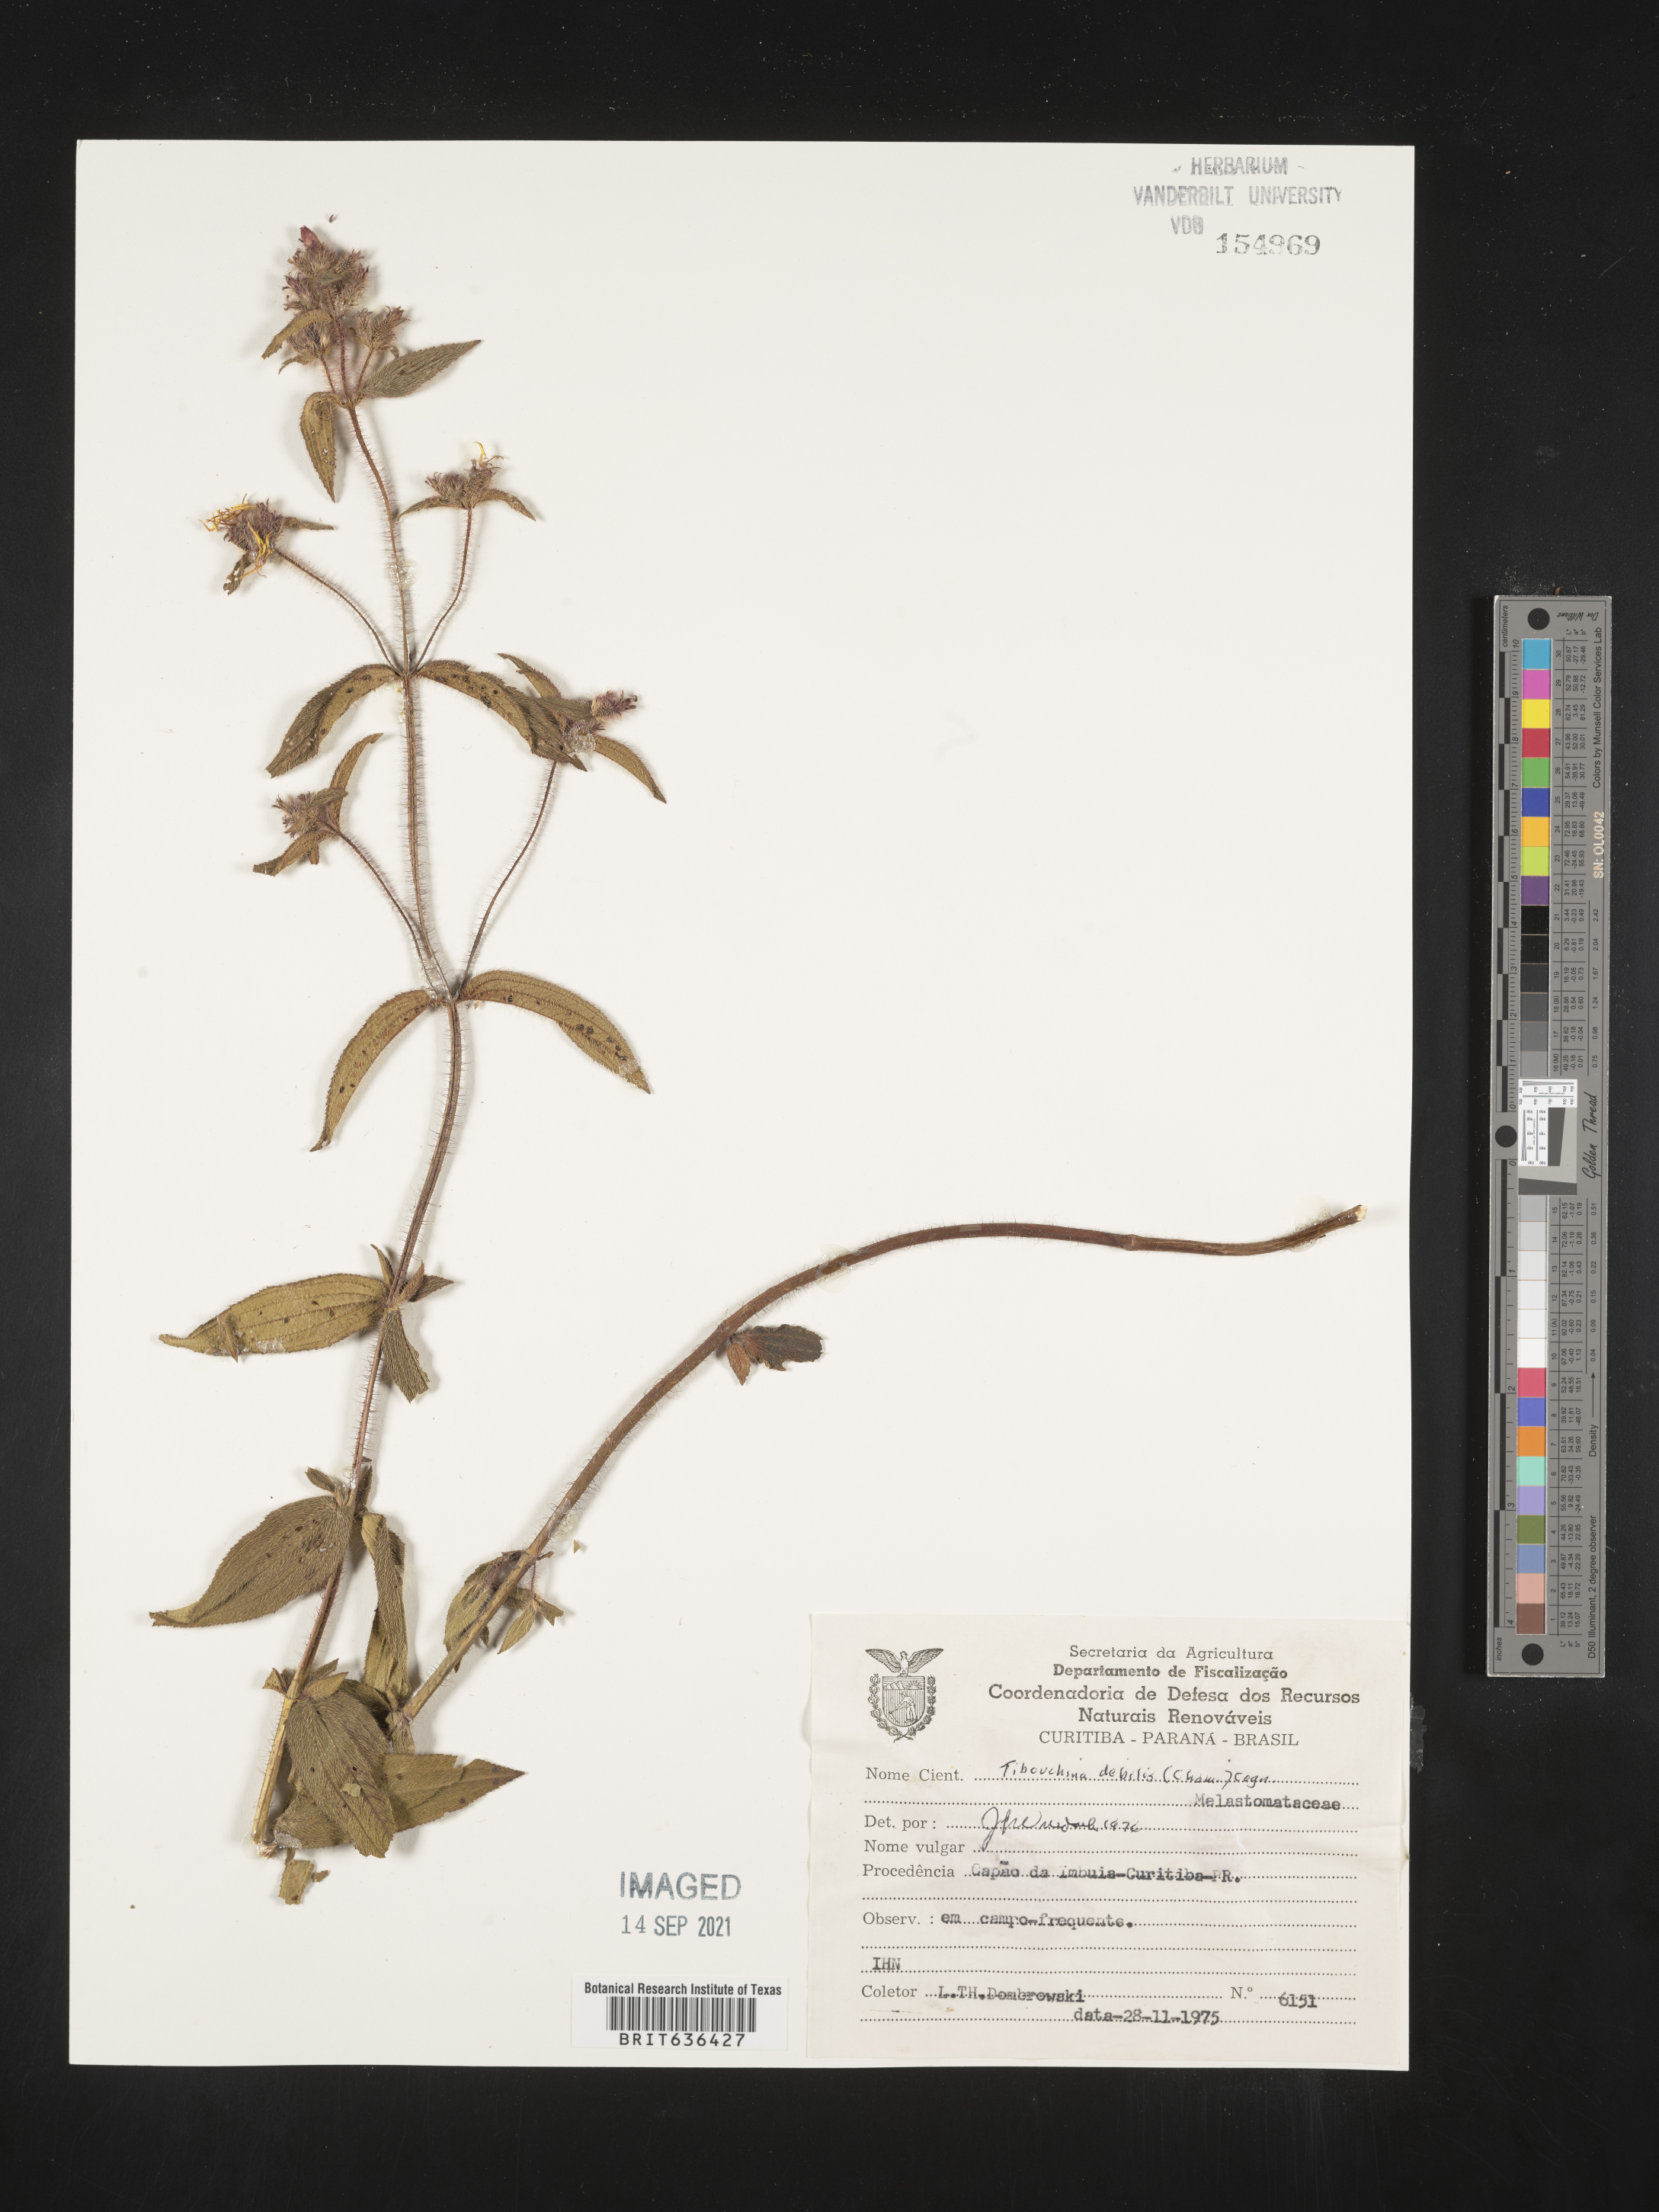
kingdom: Plantae
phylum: Tracheophyta
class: Magnoliopsida
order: Myrtales
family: Melastomataceae
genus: Tibouchina
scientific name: Tibouchina
